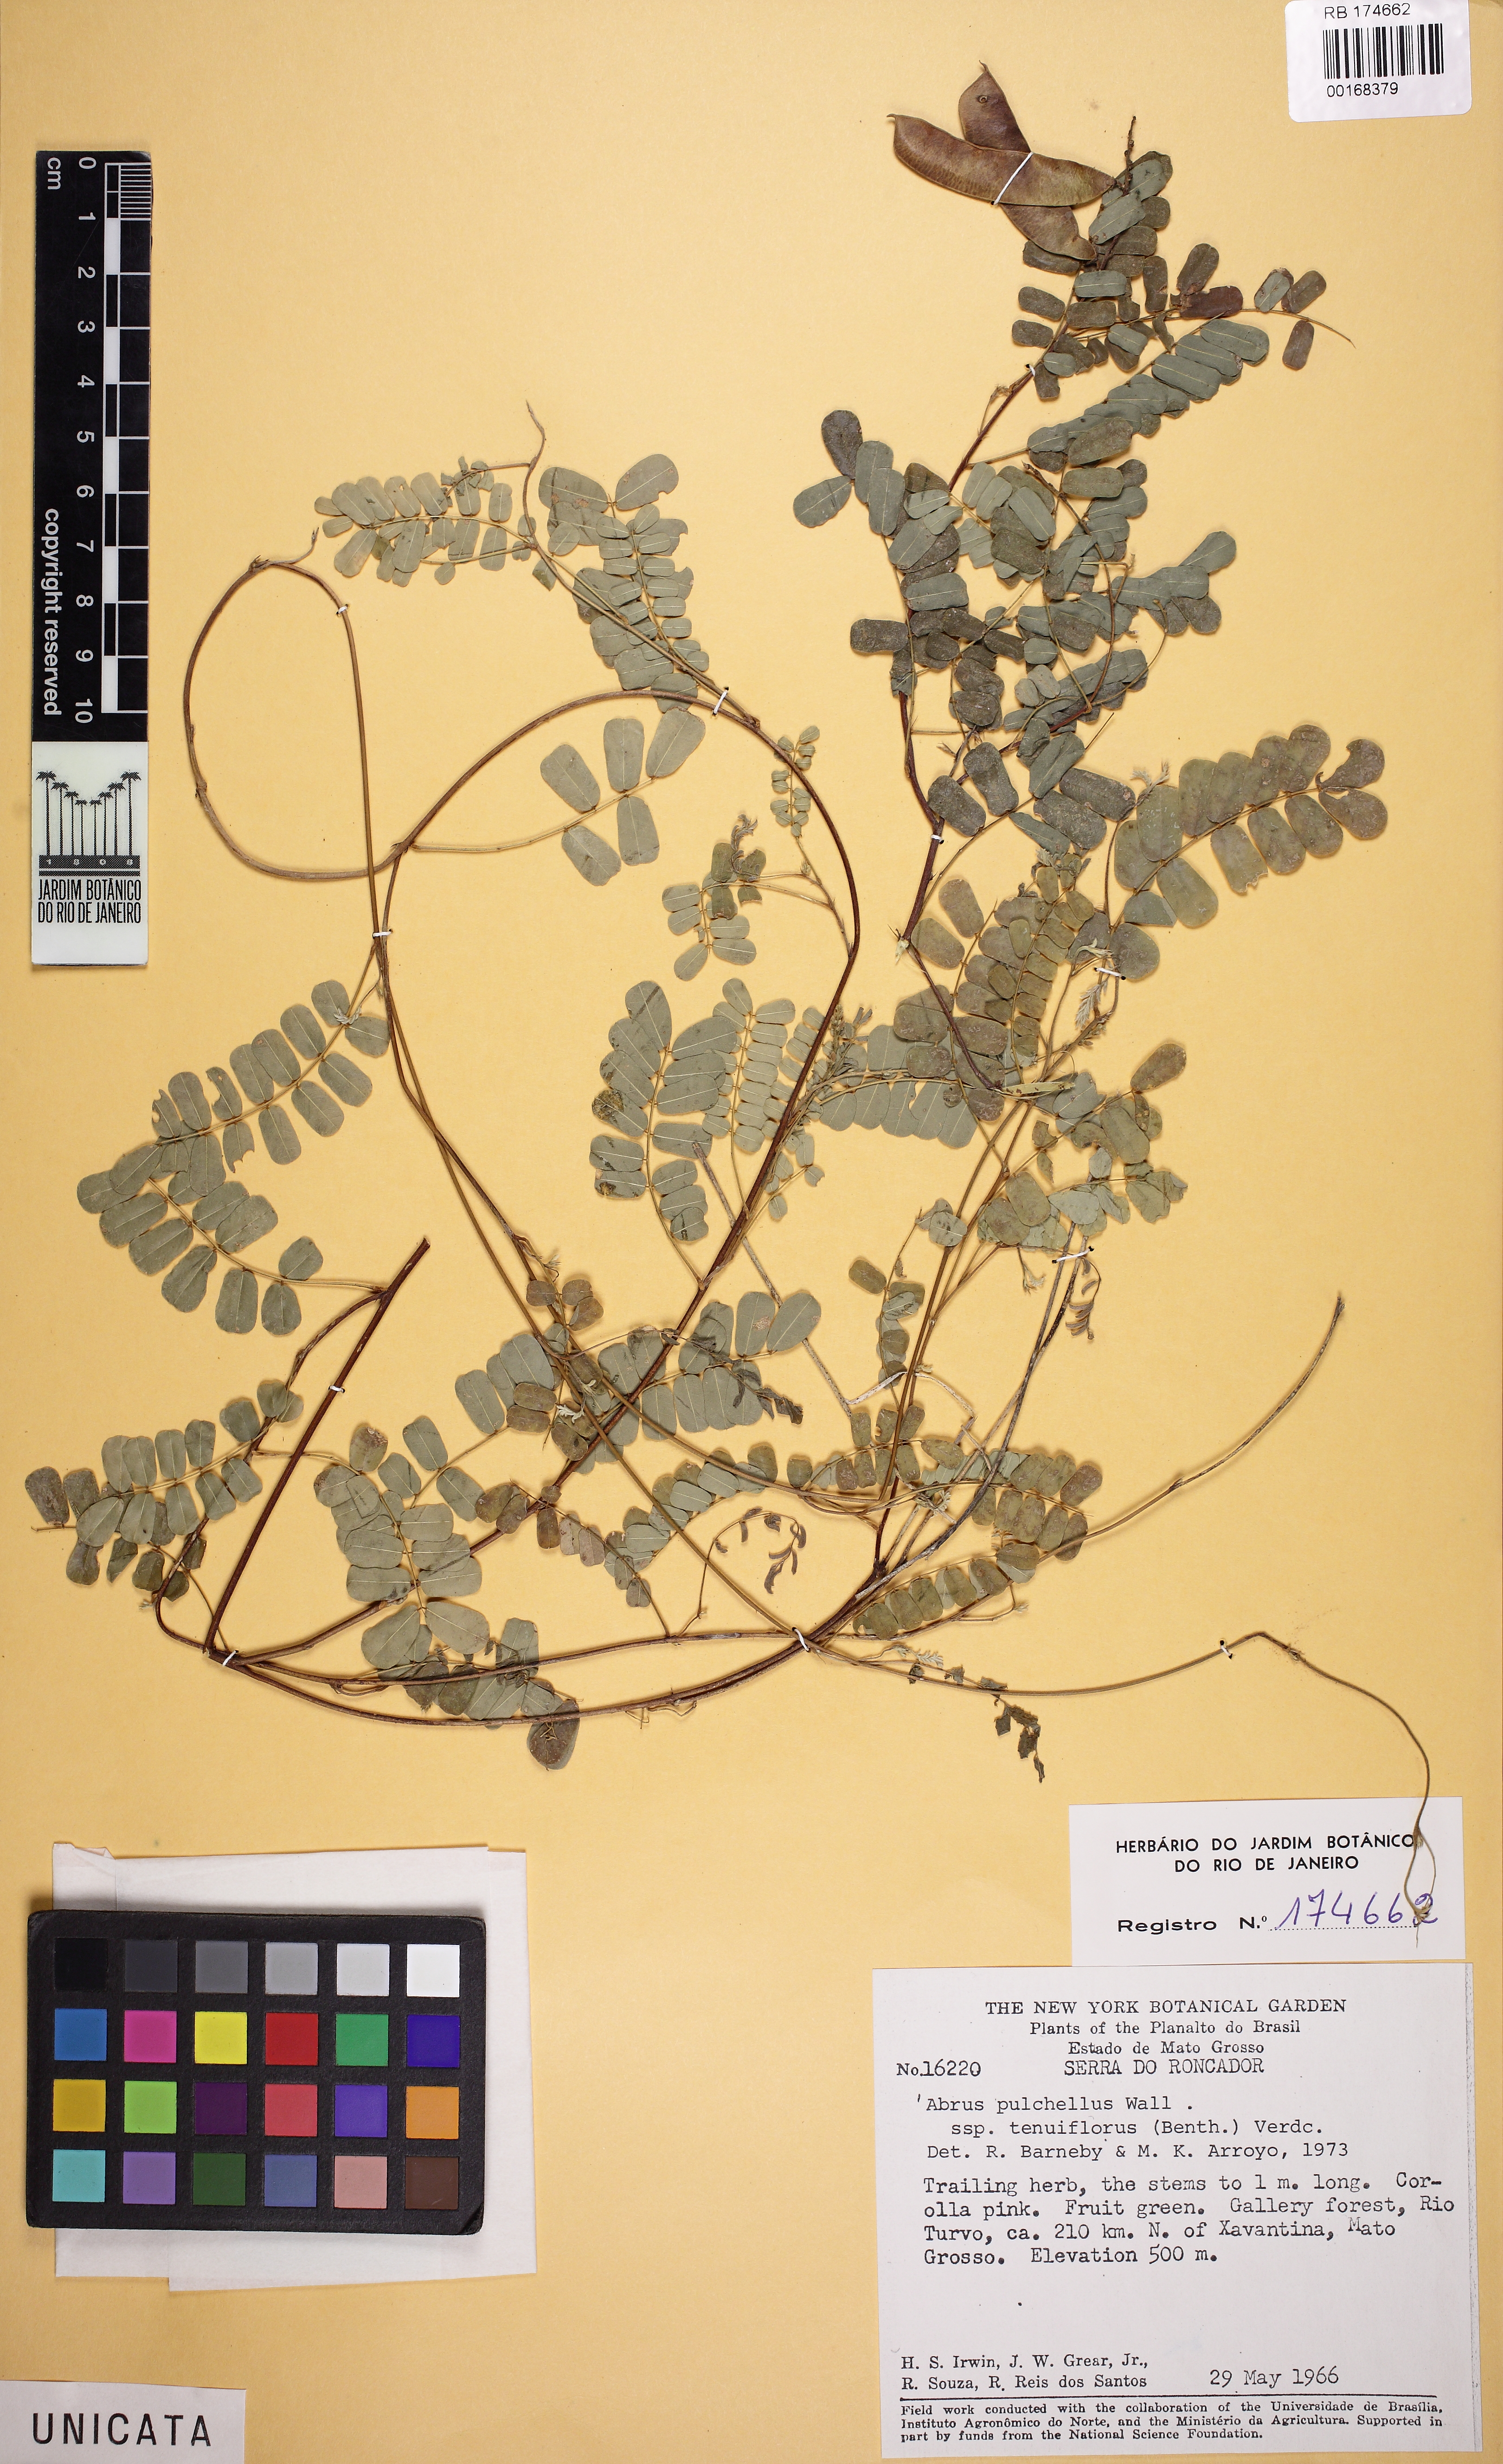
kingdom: Plantae
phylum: Tracheophyta
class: Magnoliopsida
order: Fabales
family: Fabaceae
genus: Abrus
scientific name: Abrus fruticulosus
